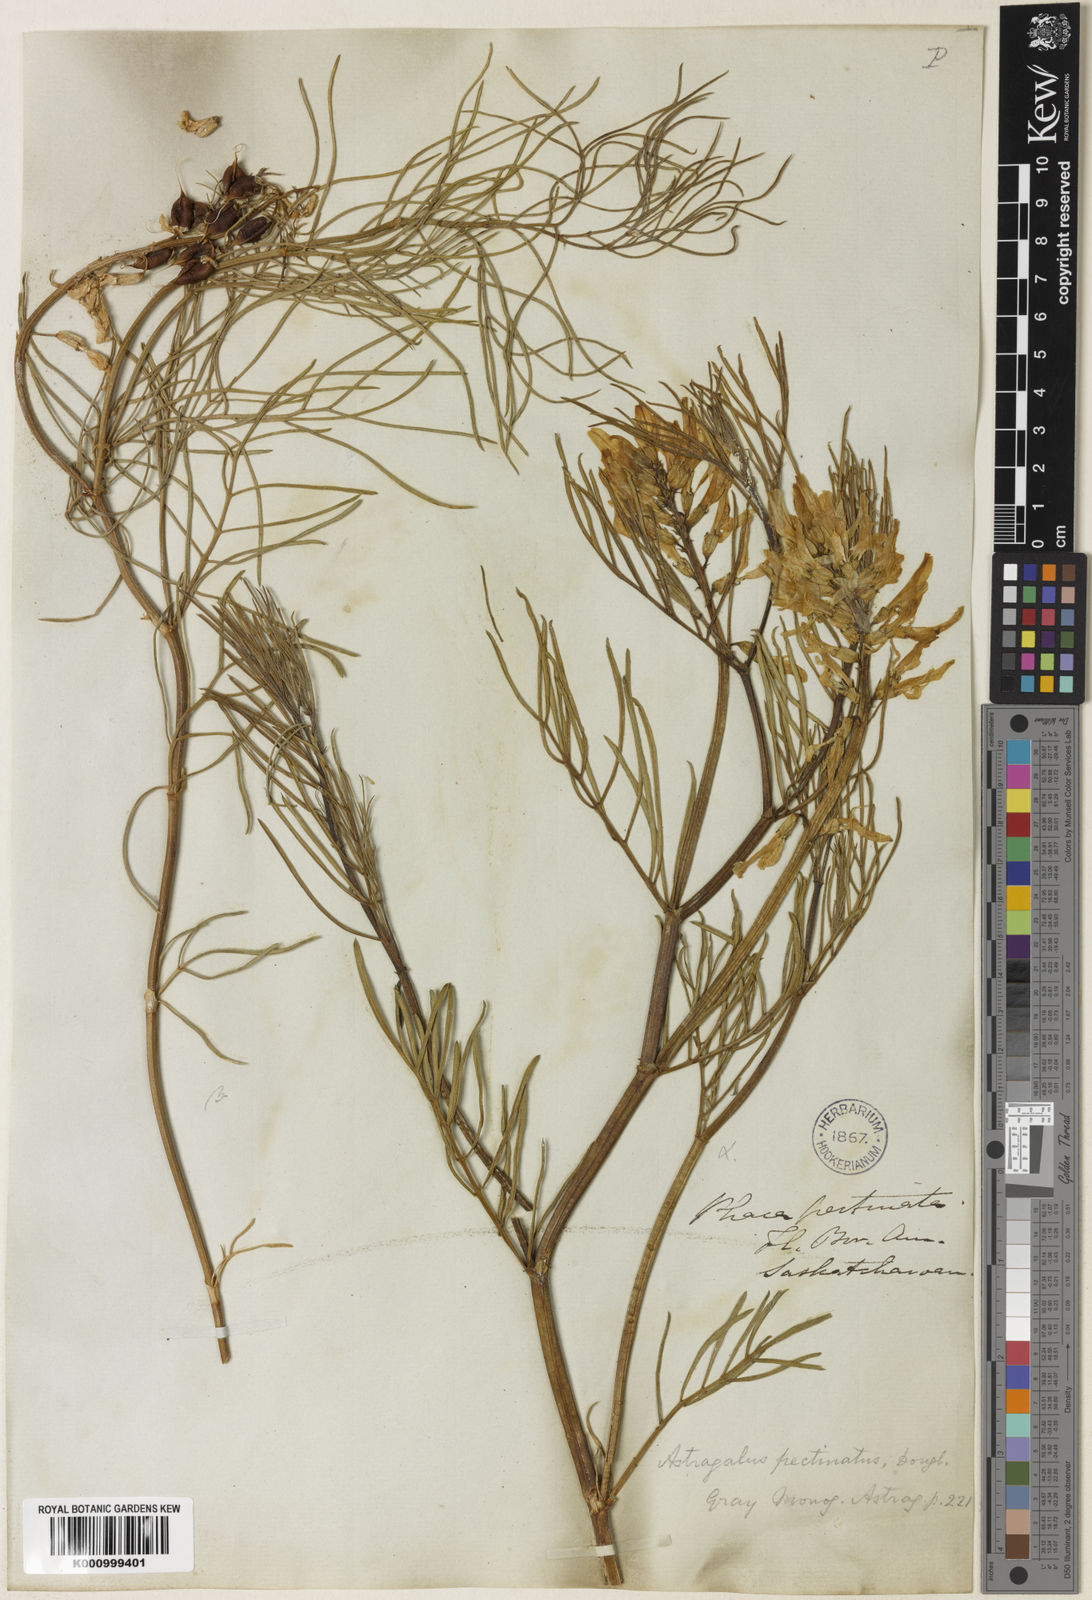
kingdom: Plantae
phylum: Tracheophyta
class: Magnoliopsida
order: Fabales
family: Fabaceae
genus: Astragalus
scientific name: Astragalus pectinatus
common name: Tine-leaf milk-vetch
